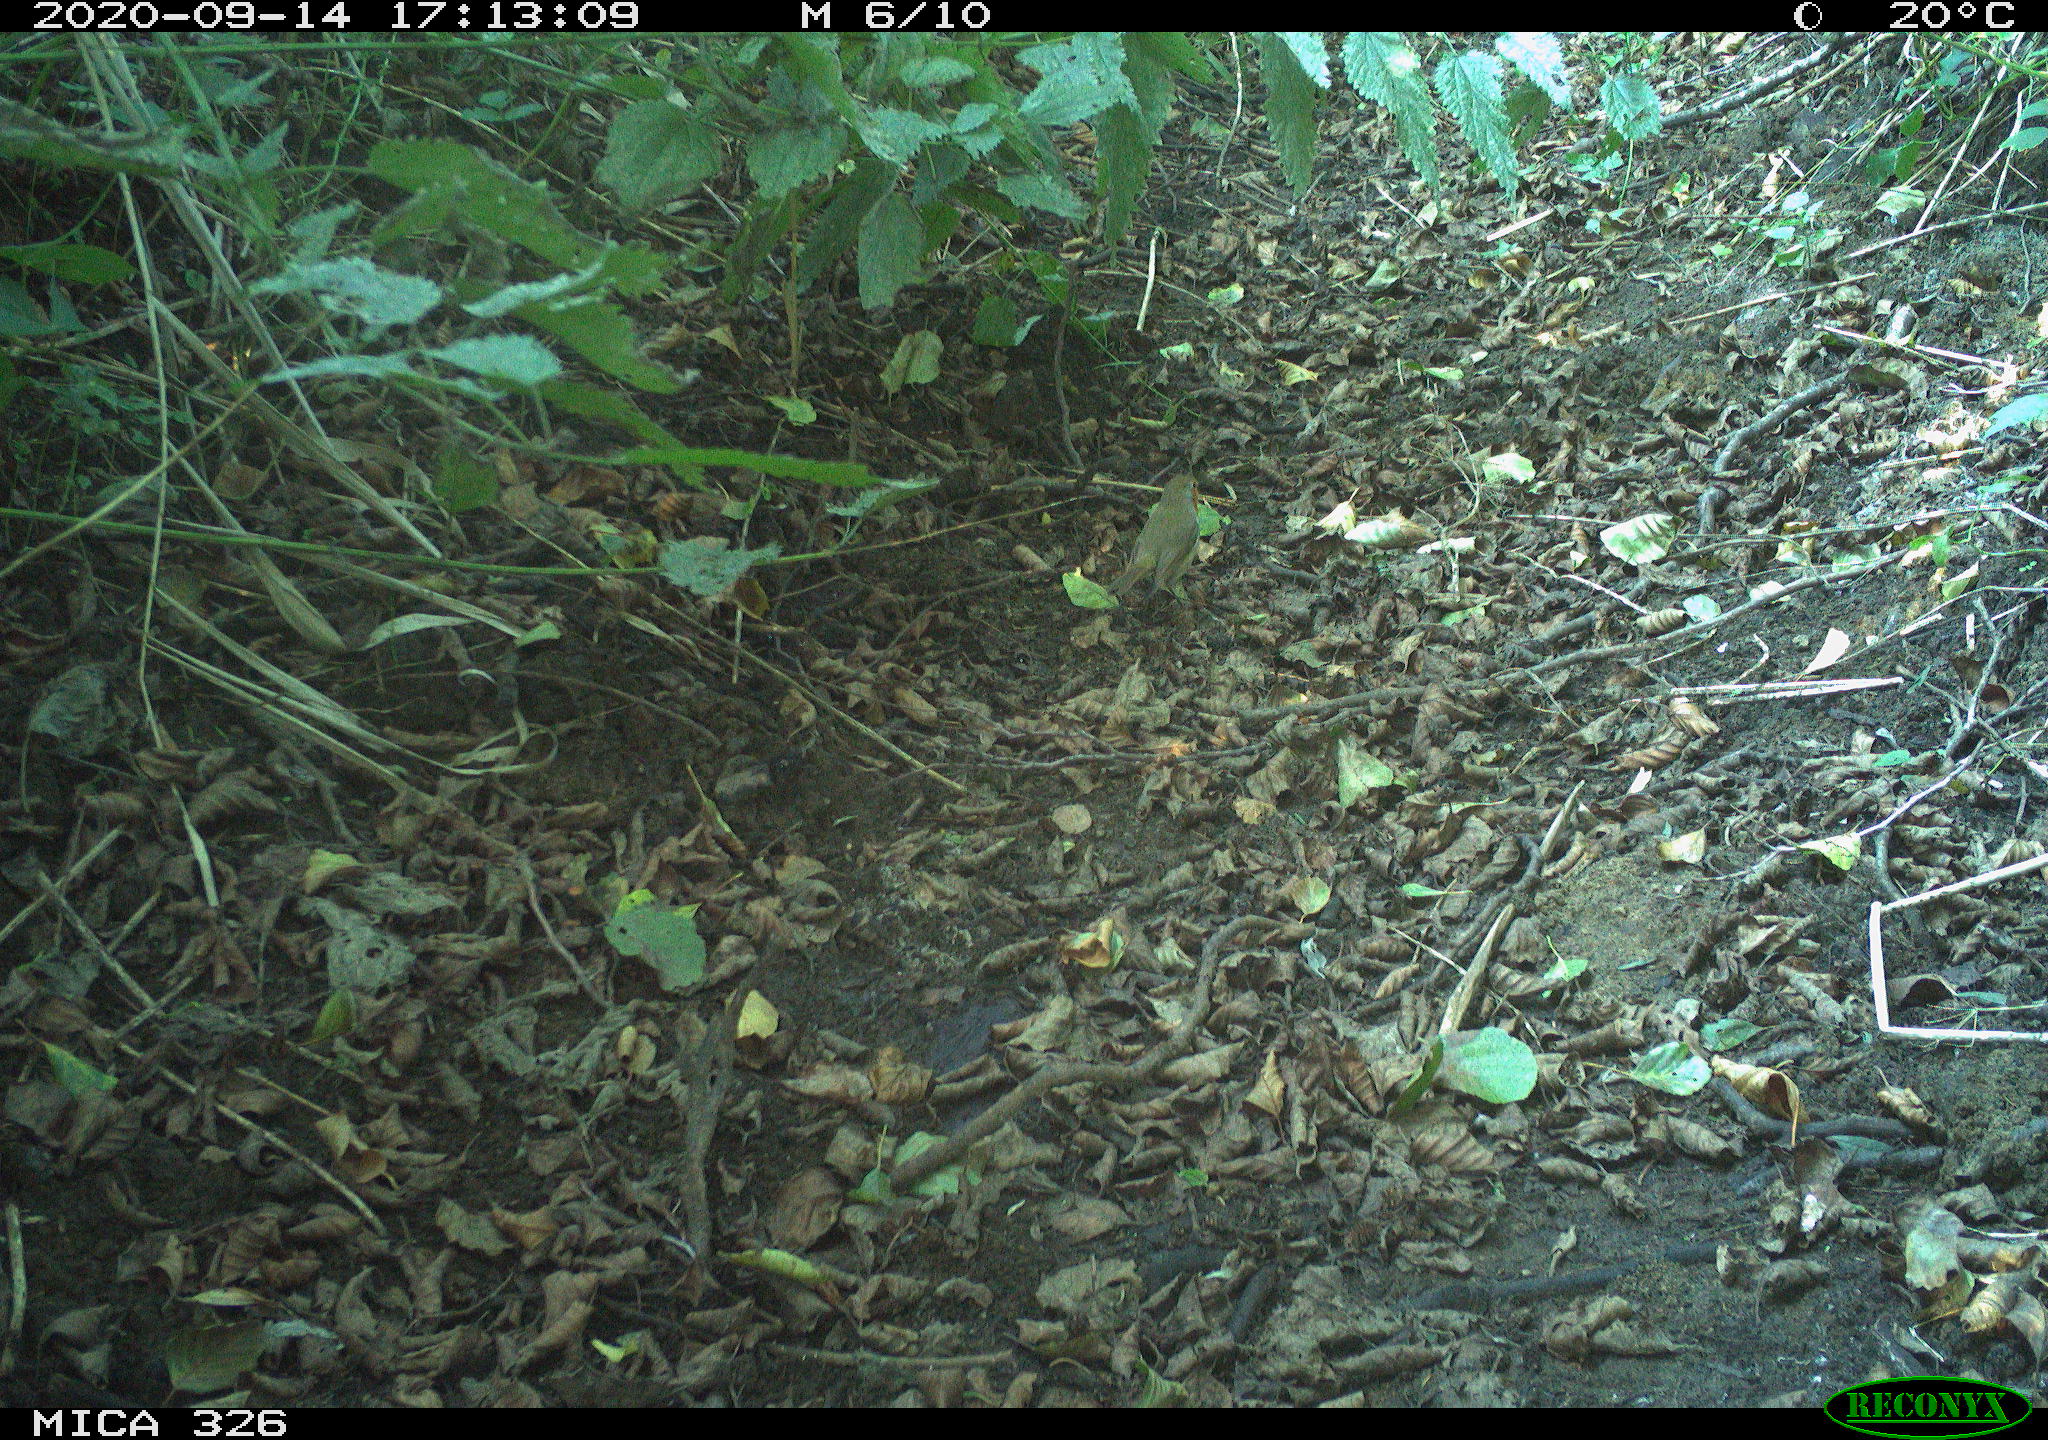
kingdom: Animalia
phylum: Chordata
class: Aves
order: Passeriformes
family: Muscicapidae
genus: Erithacus
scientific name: Erithacus rubecula
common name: European robin
